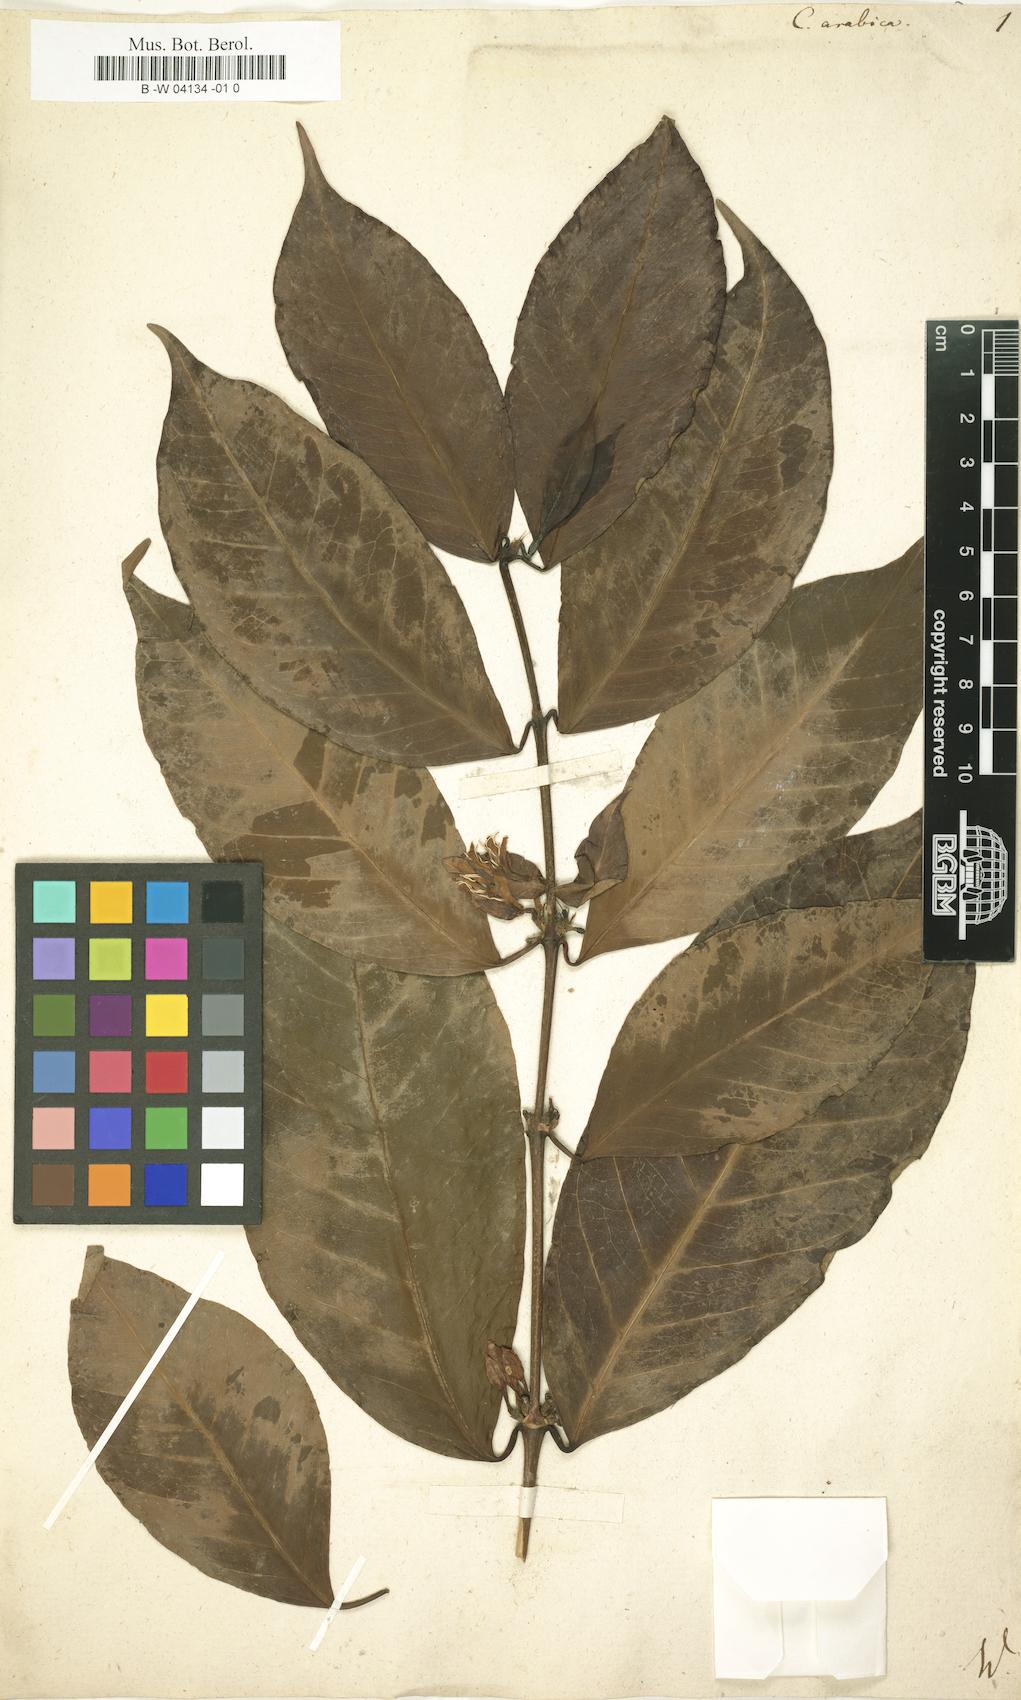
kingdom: Plantae
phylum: Tracheophyta
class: Magnoliopsida
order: Gentianales
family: Rubiaceae
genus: Coffea
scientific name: Coffea arabica
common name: Coffee
